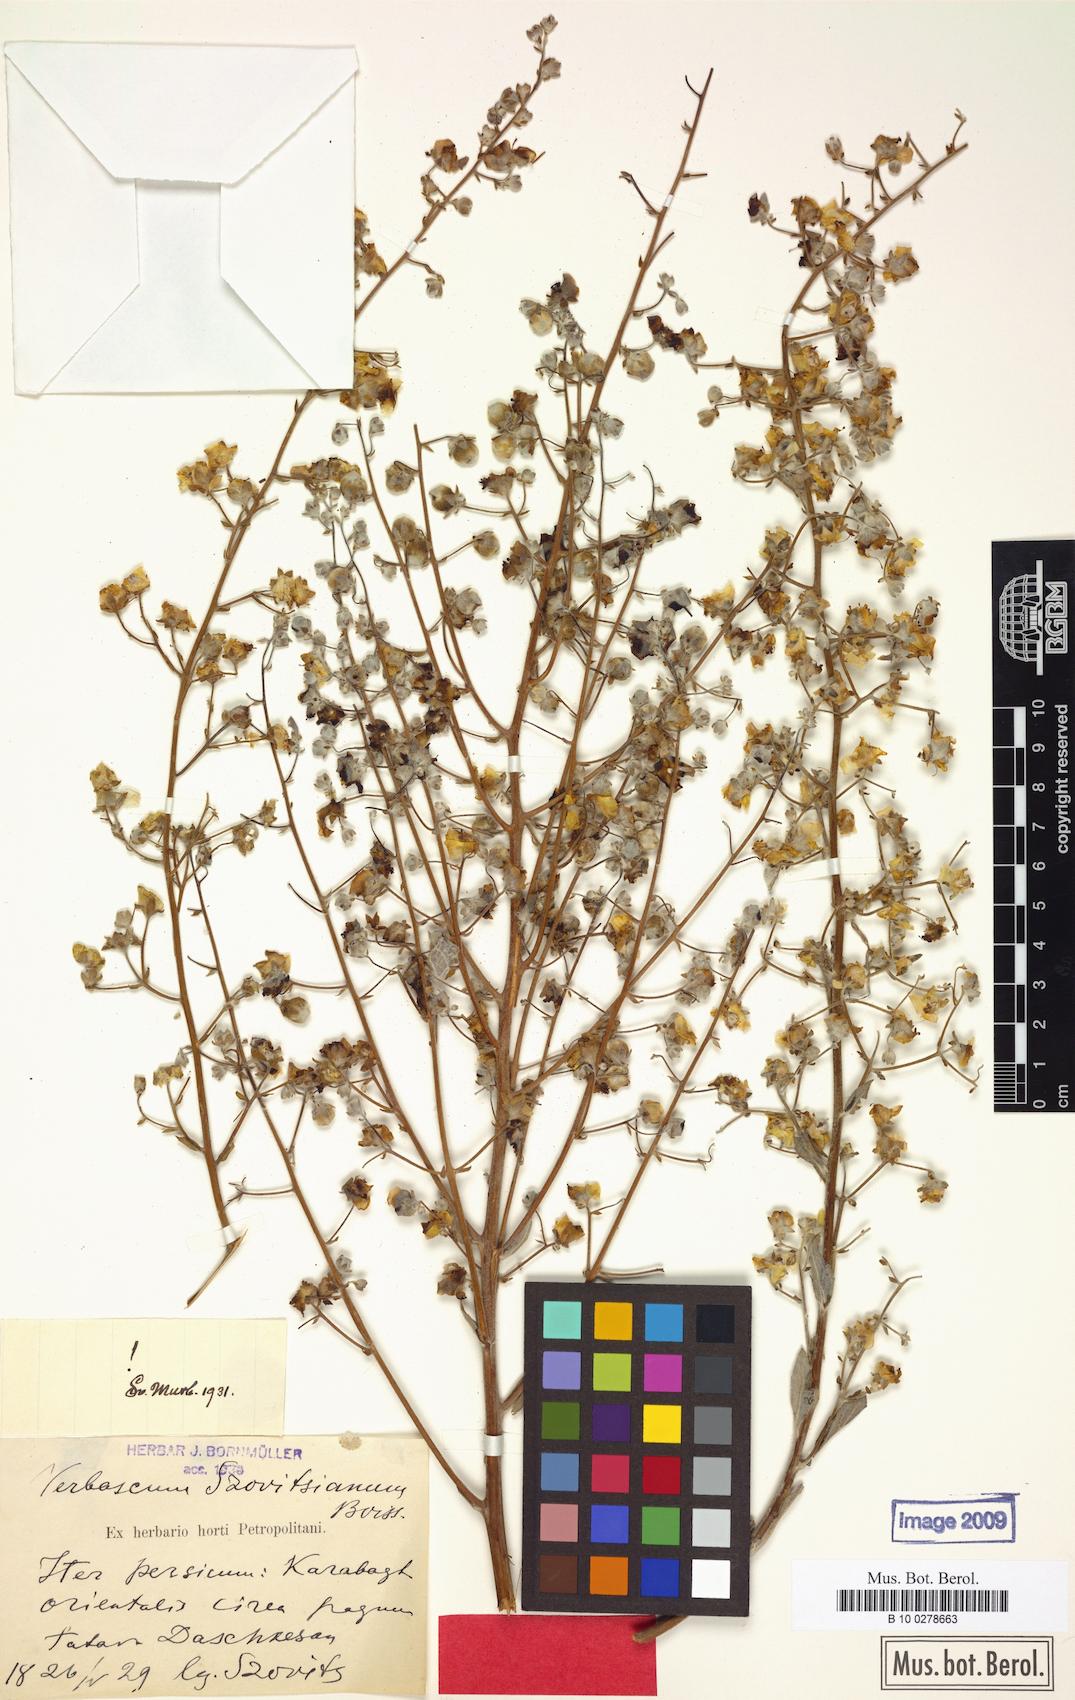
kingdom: Plantae
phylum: Tracheophyta
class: Magnoliopsida
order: Lamiales
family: Scrophulariaceae
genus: Verbascum
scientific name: Verbascum szovitsianum
